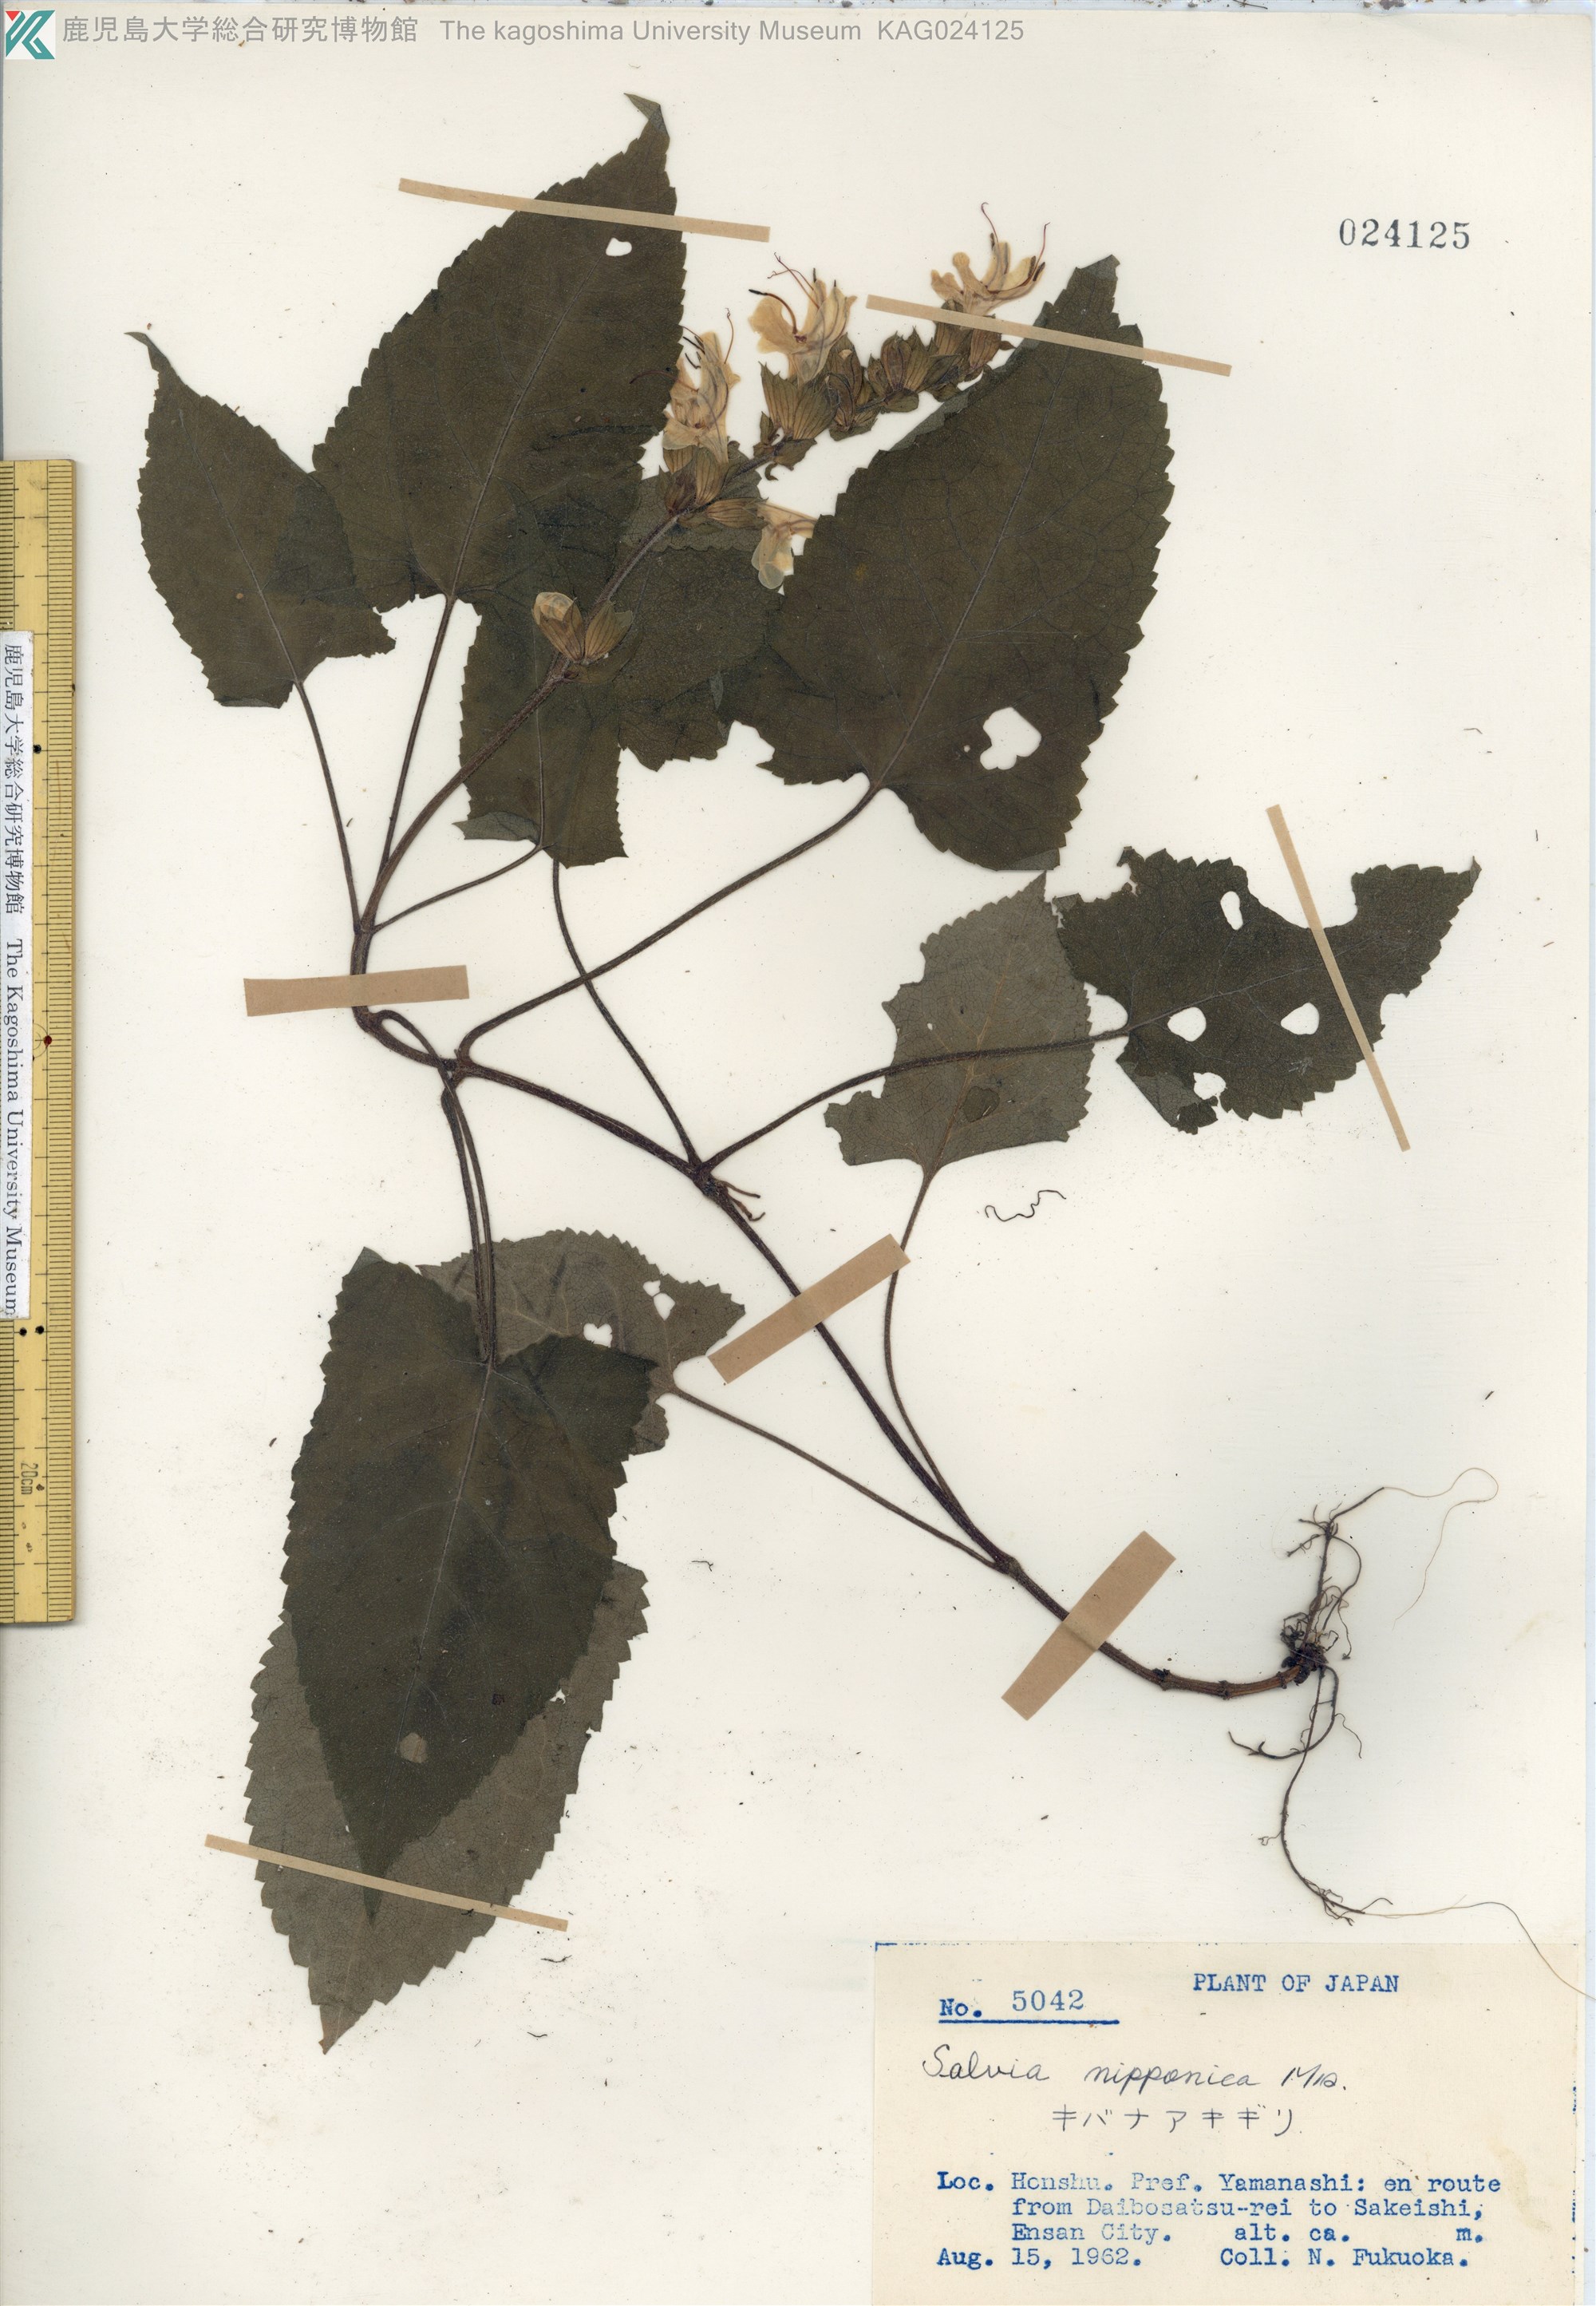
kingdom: Plantae
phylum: Tracheophyta
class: Magnoliopsida
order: Lamiales
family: Lamiaceae
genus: Salvia
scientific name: Salvia nipponica
